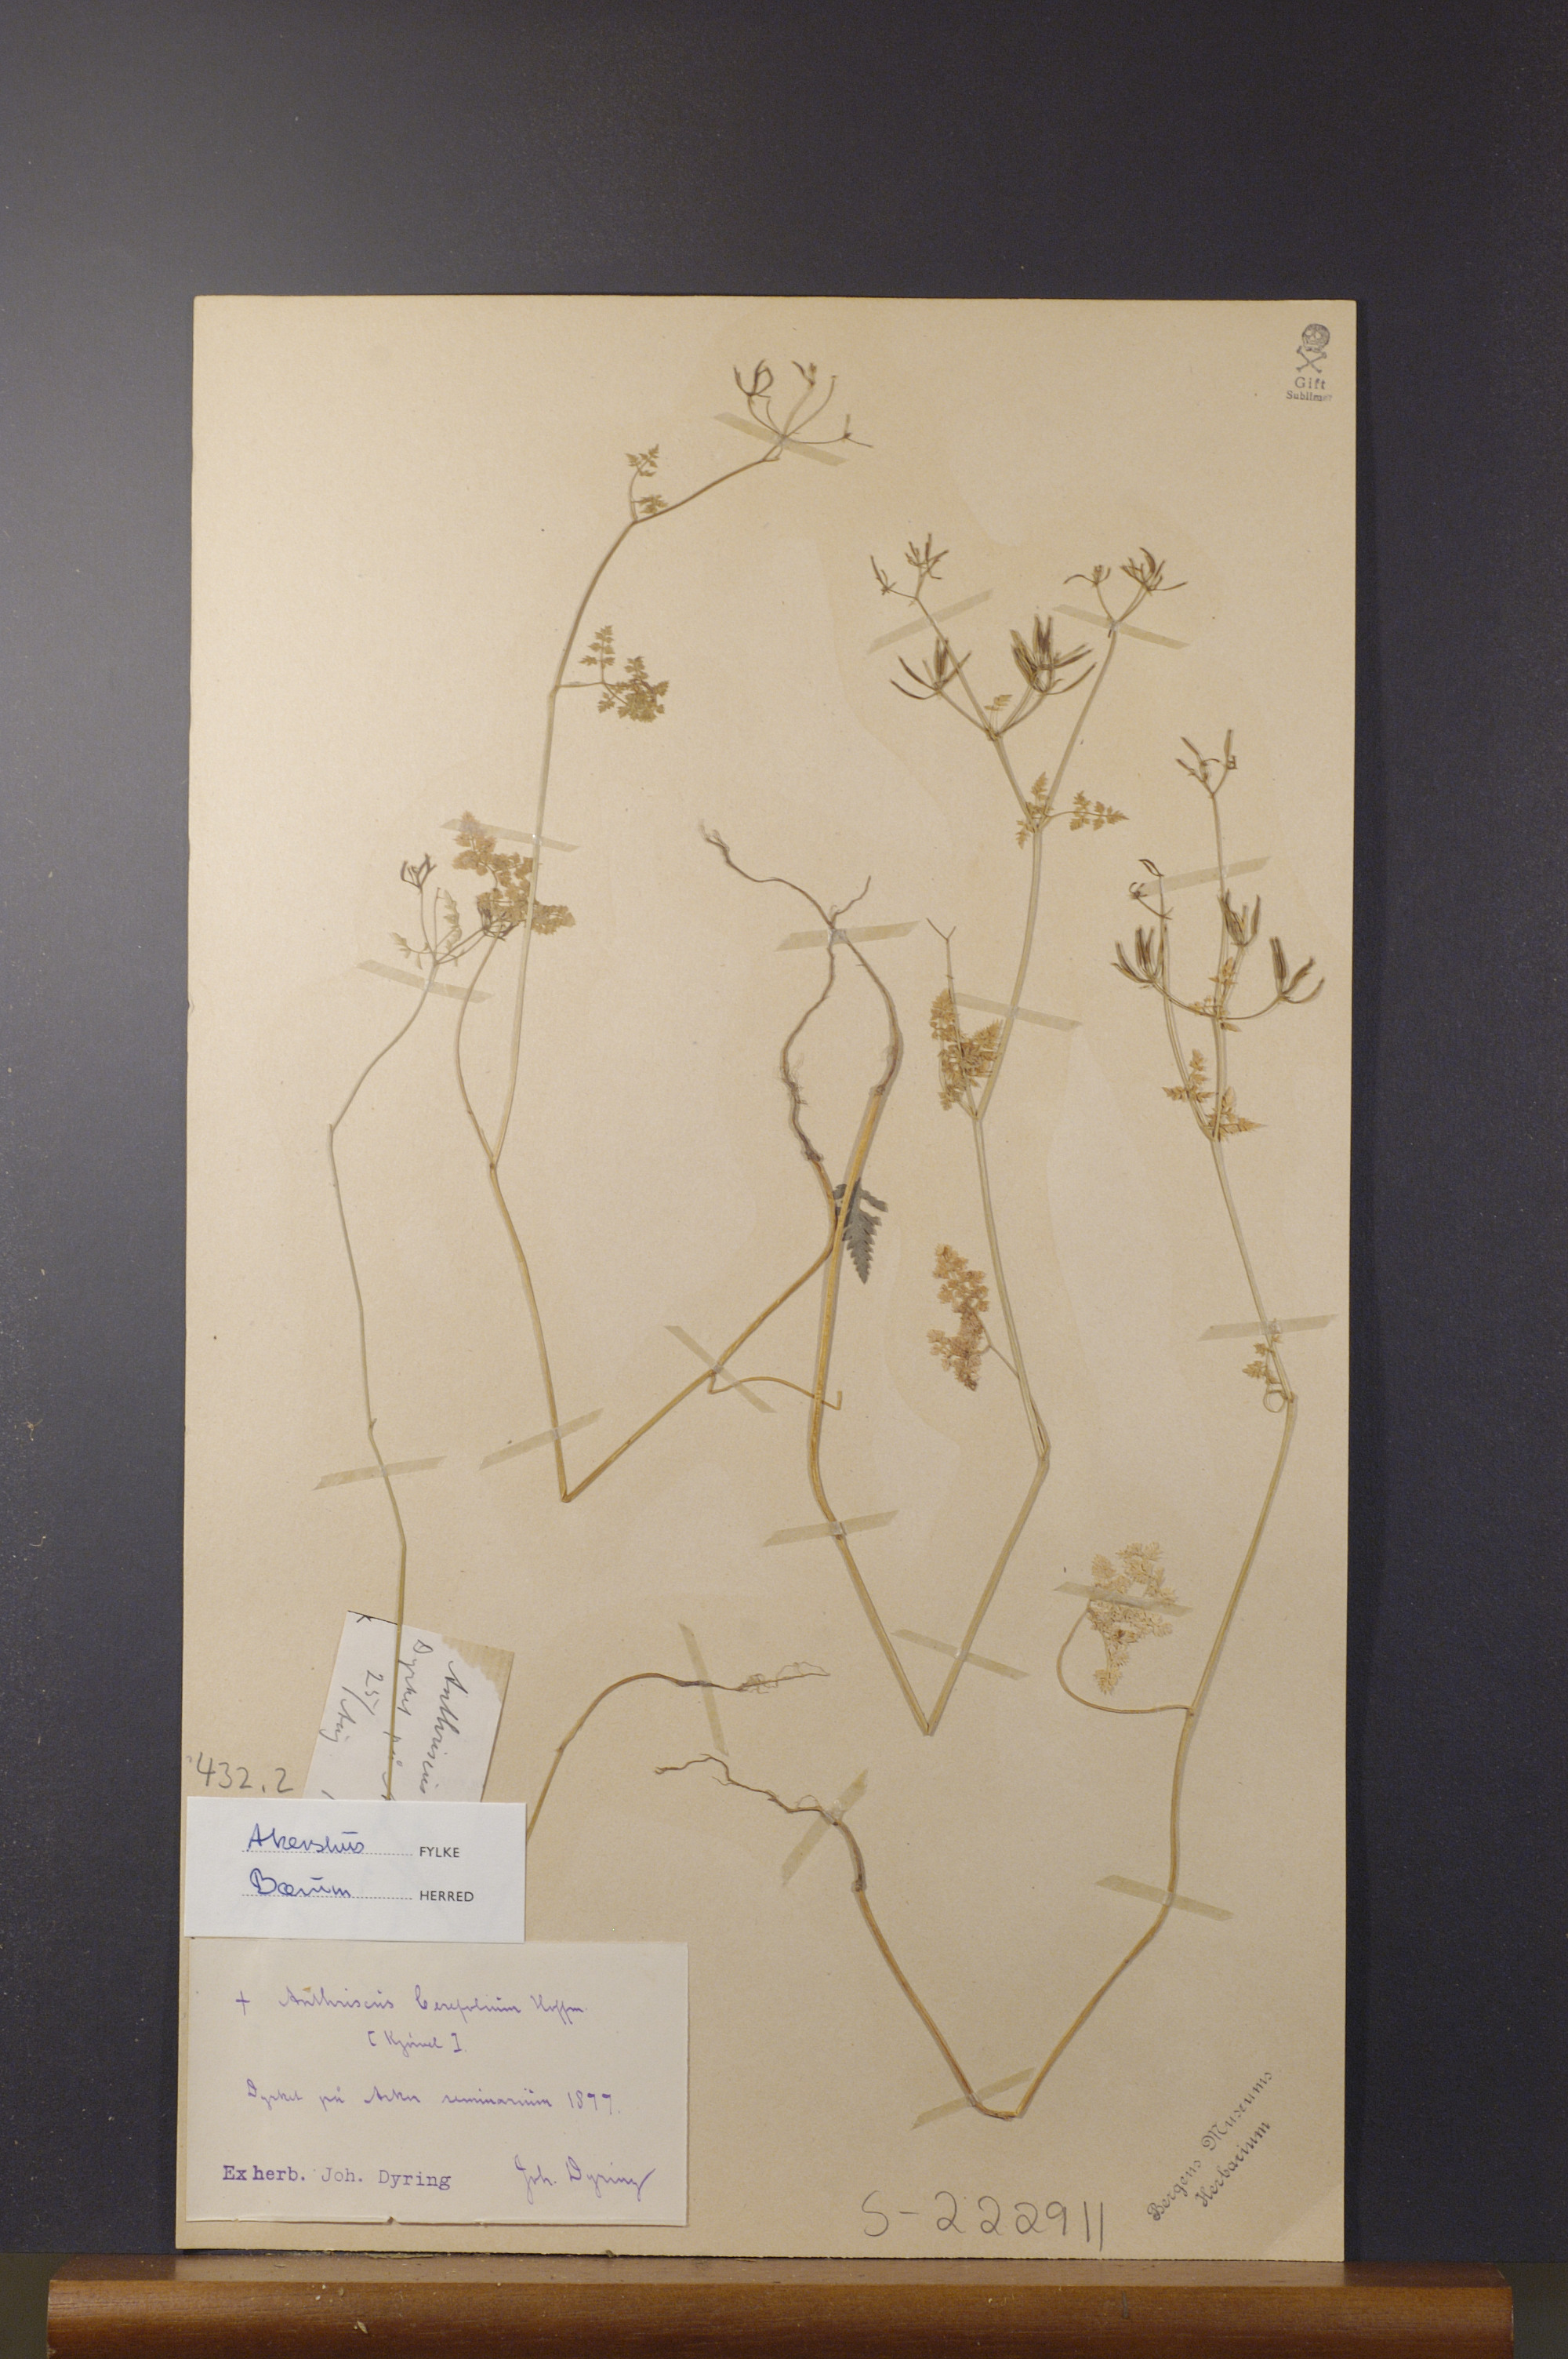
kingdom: Plantae
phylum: Tracheophyta
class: Magnoliopsida
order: Apiales
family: Apiaceae
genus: Anthriscus
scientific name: Anthriscus cerefolium
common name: Garden chervil
